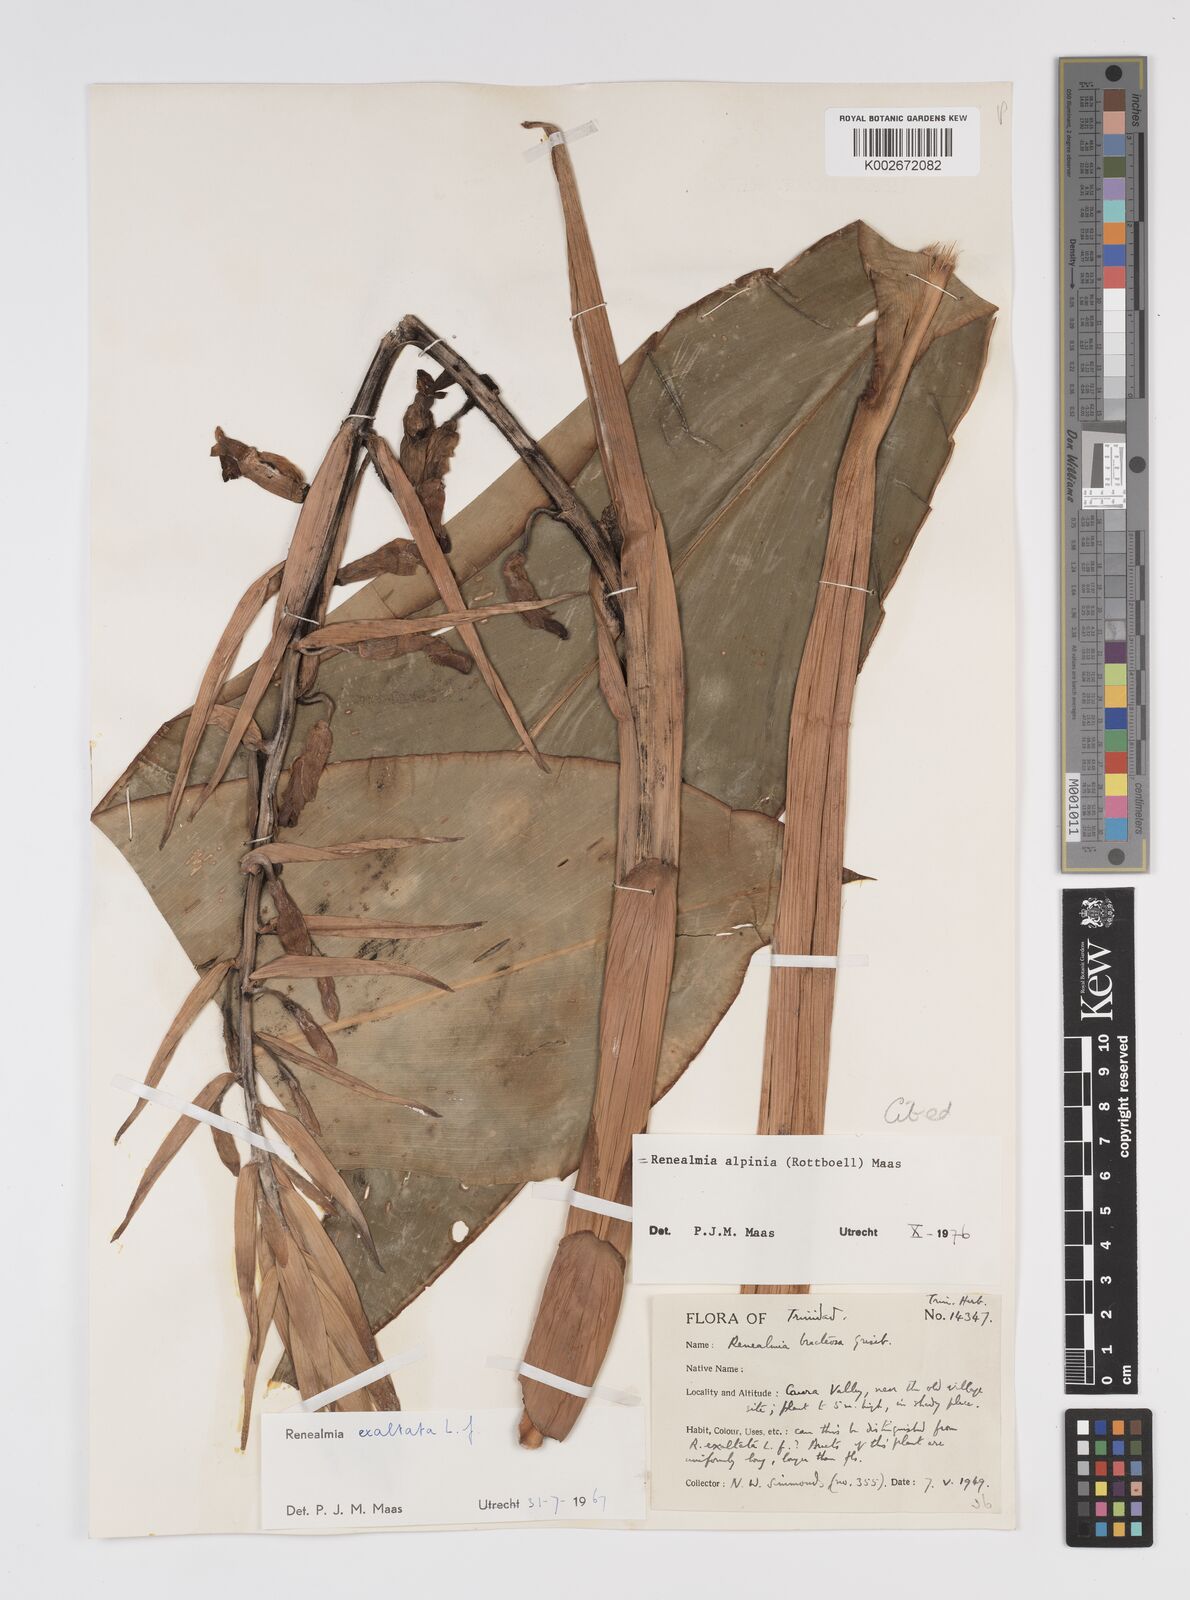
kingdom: Plantae
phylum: Tracheophyta
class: Liliopsida
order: Zingiberales
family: Zingiberaceae
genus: Renealmia
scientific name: Renealmia alpinia
